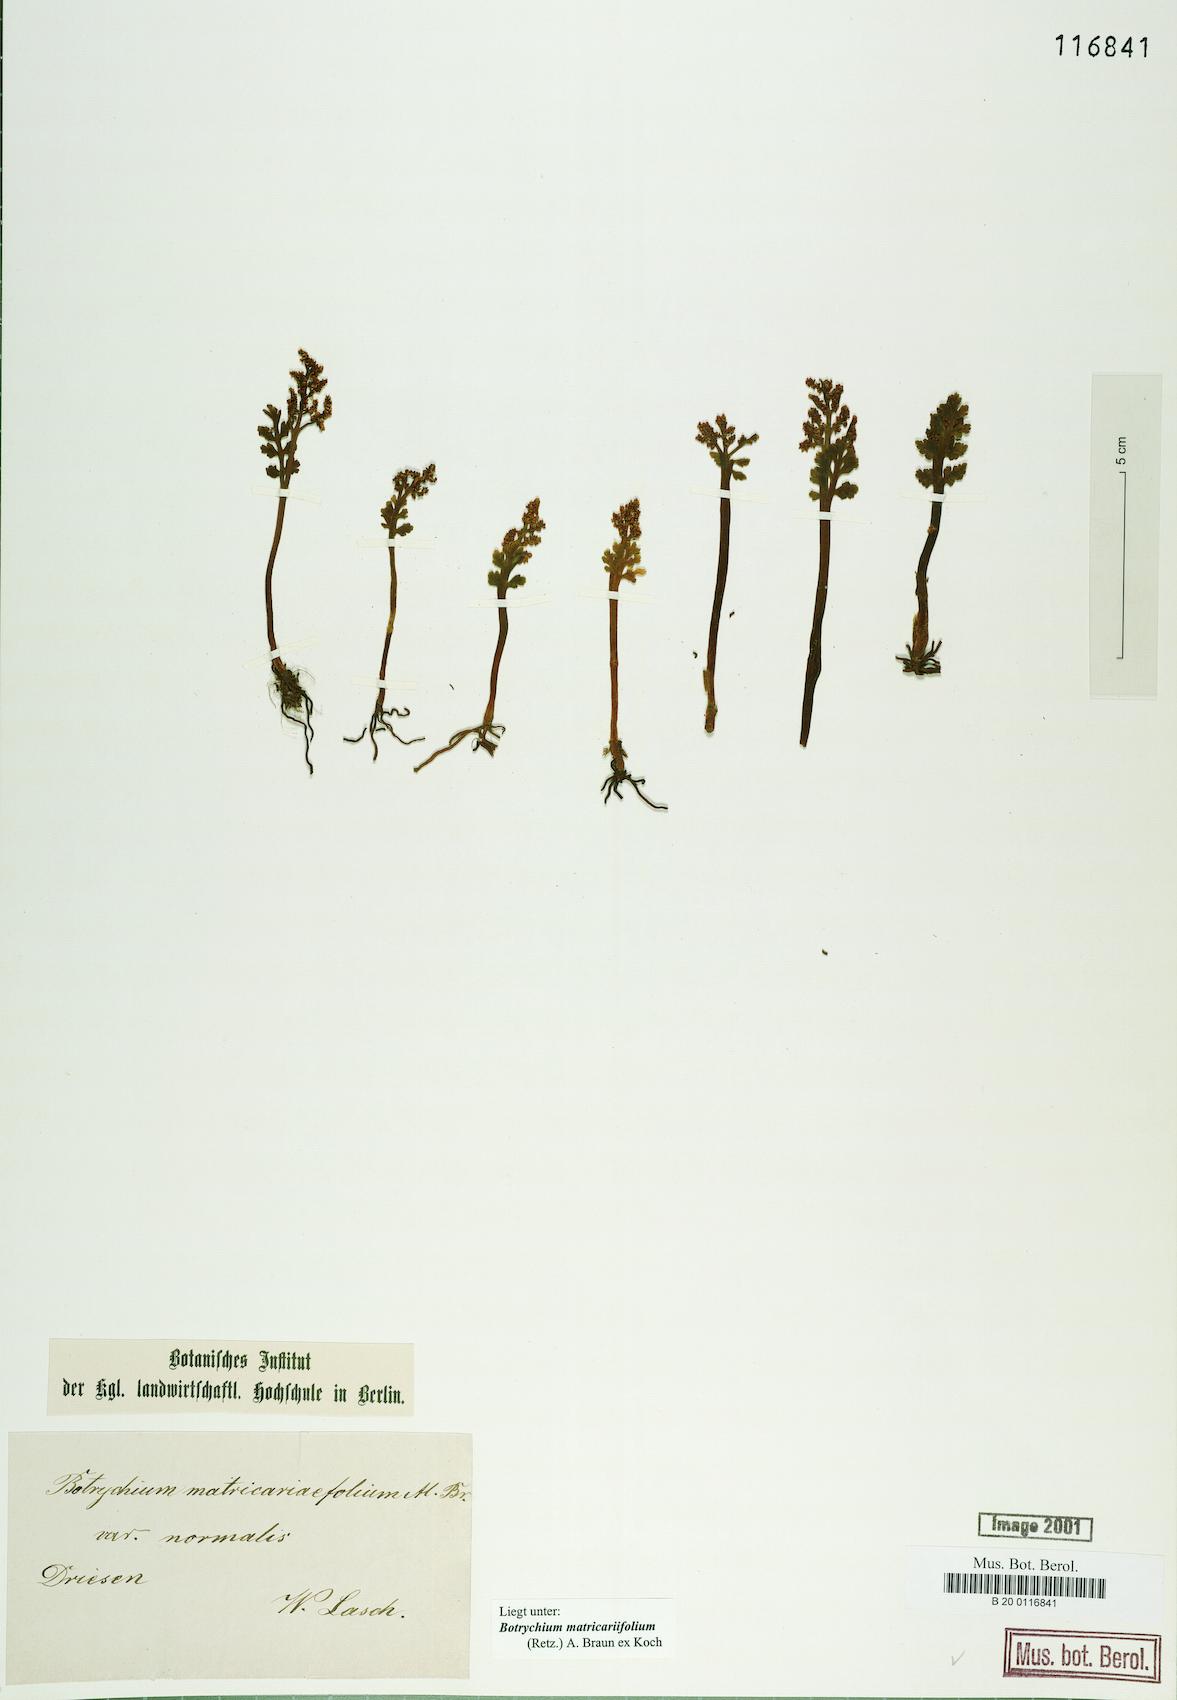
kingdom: Plantae
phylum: Tracheophyta
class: Polypodiopsida
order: Ophioglossales
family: Ophioglossaceae
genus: Botrychium
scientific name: Botrychium matricariifolium
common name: Branched moonwort
